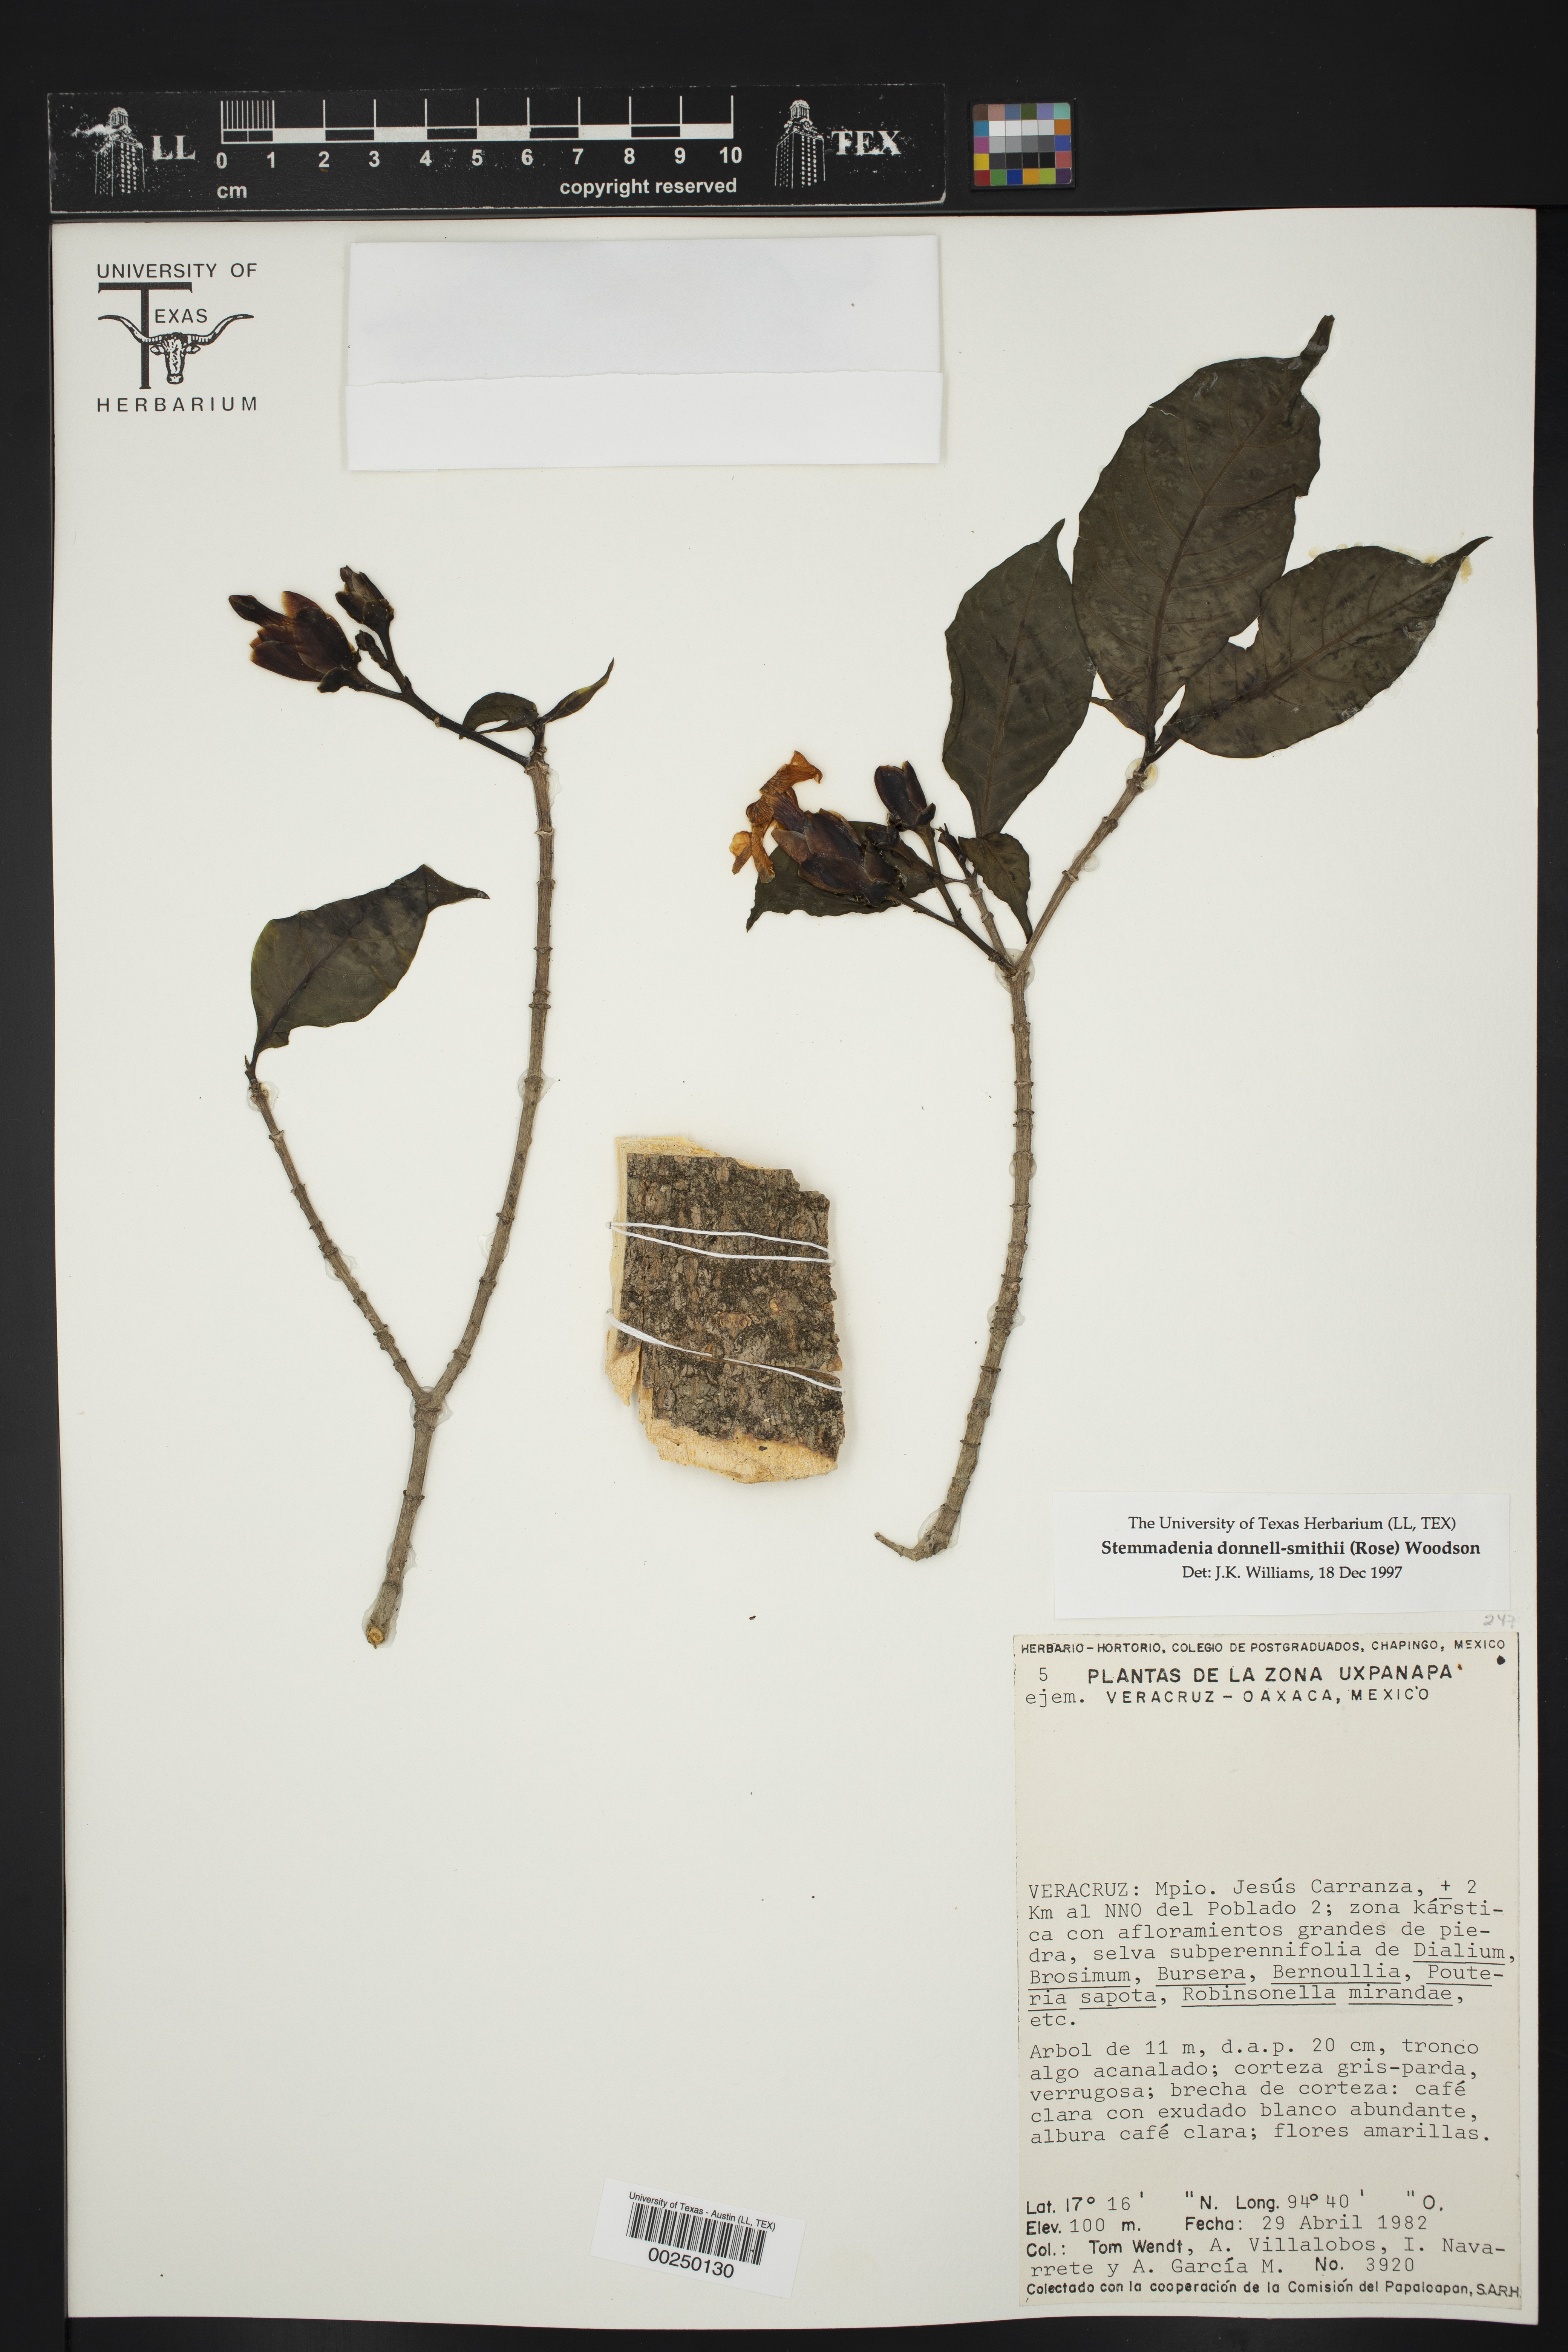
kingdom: Plantae
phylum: Tracheophyta
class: Magnoliopsida
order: Gentianales
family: Apocynaceae
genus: Tabernaemontana
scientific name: Tabernaemontana donnell-smithii
